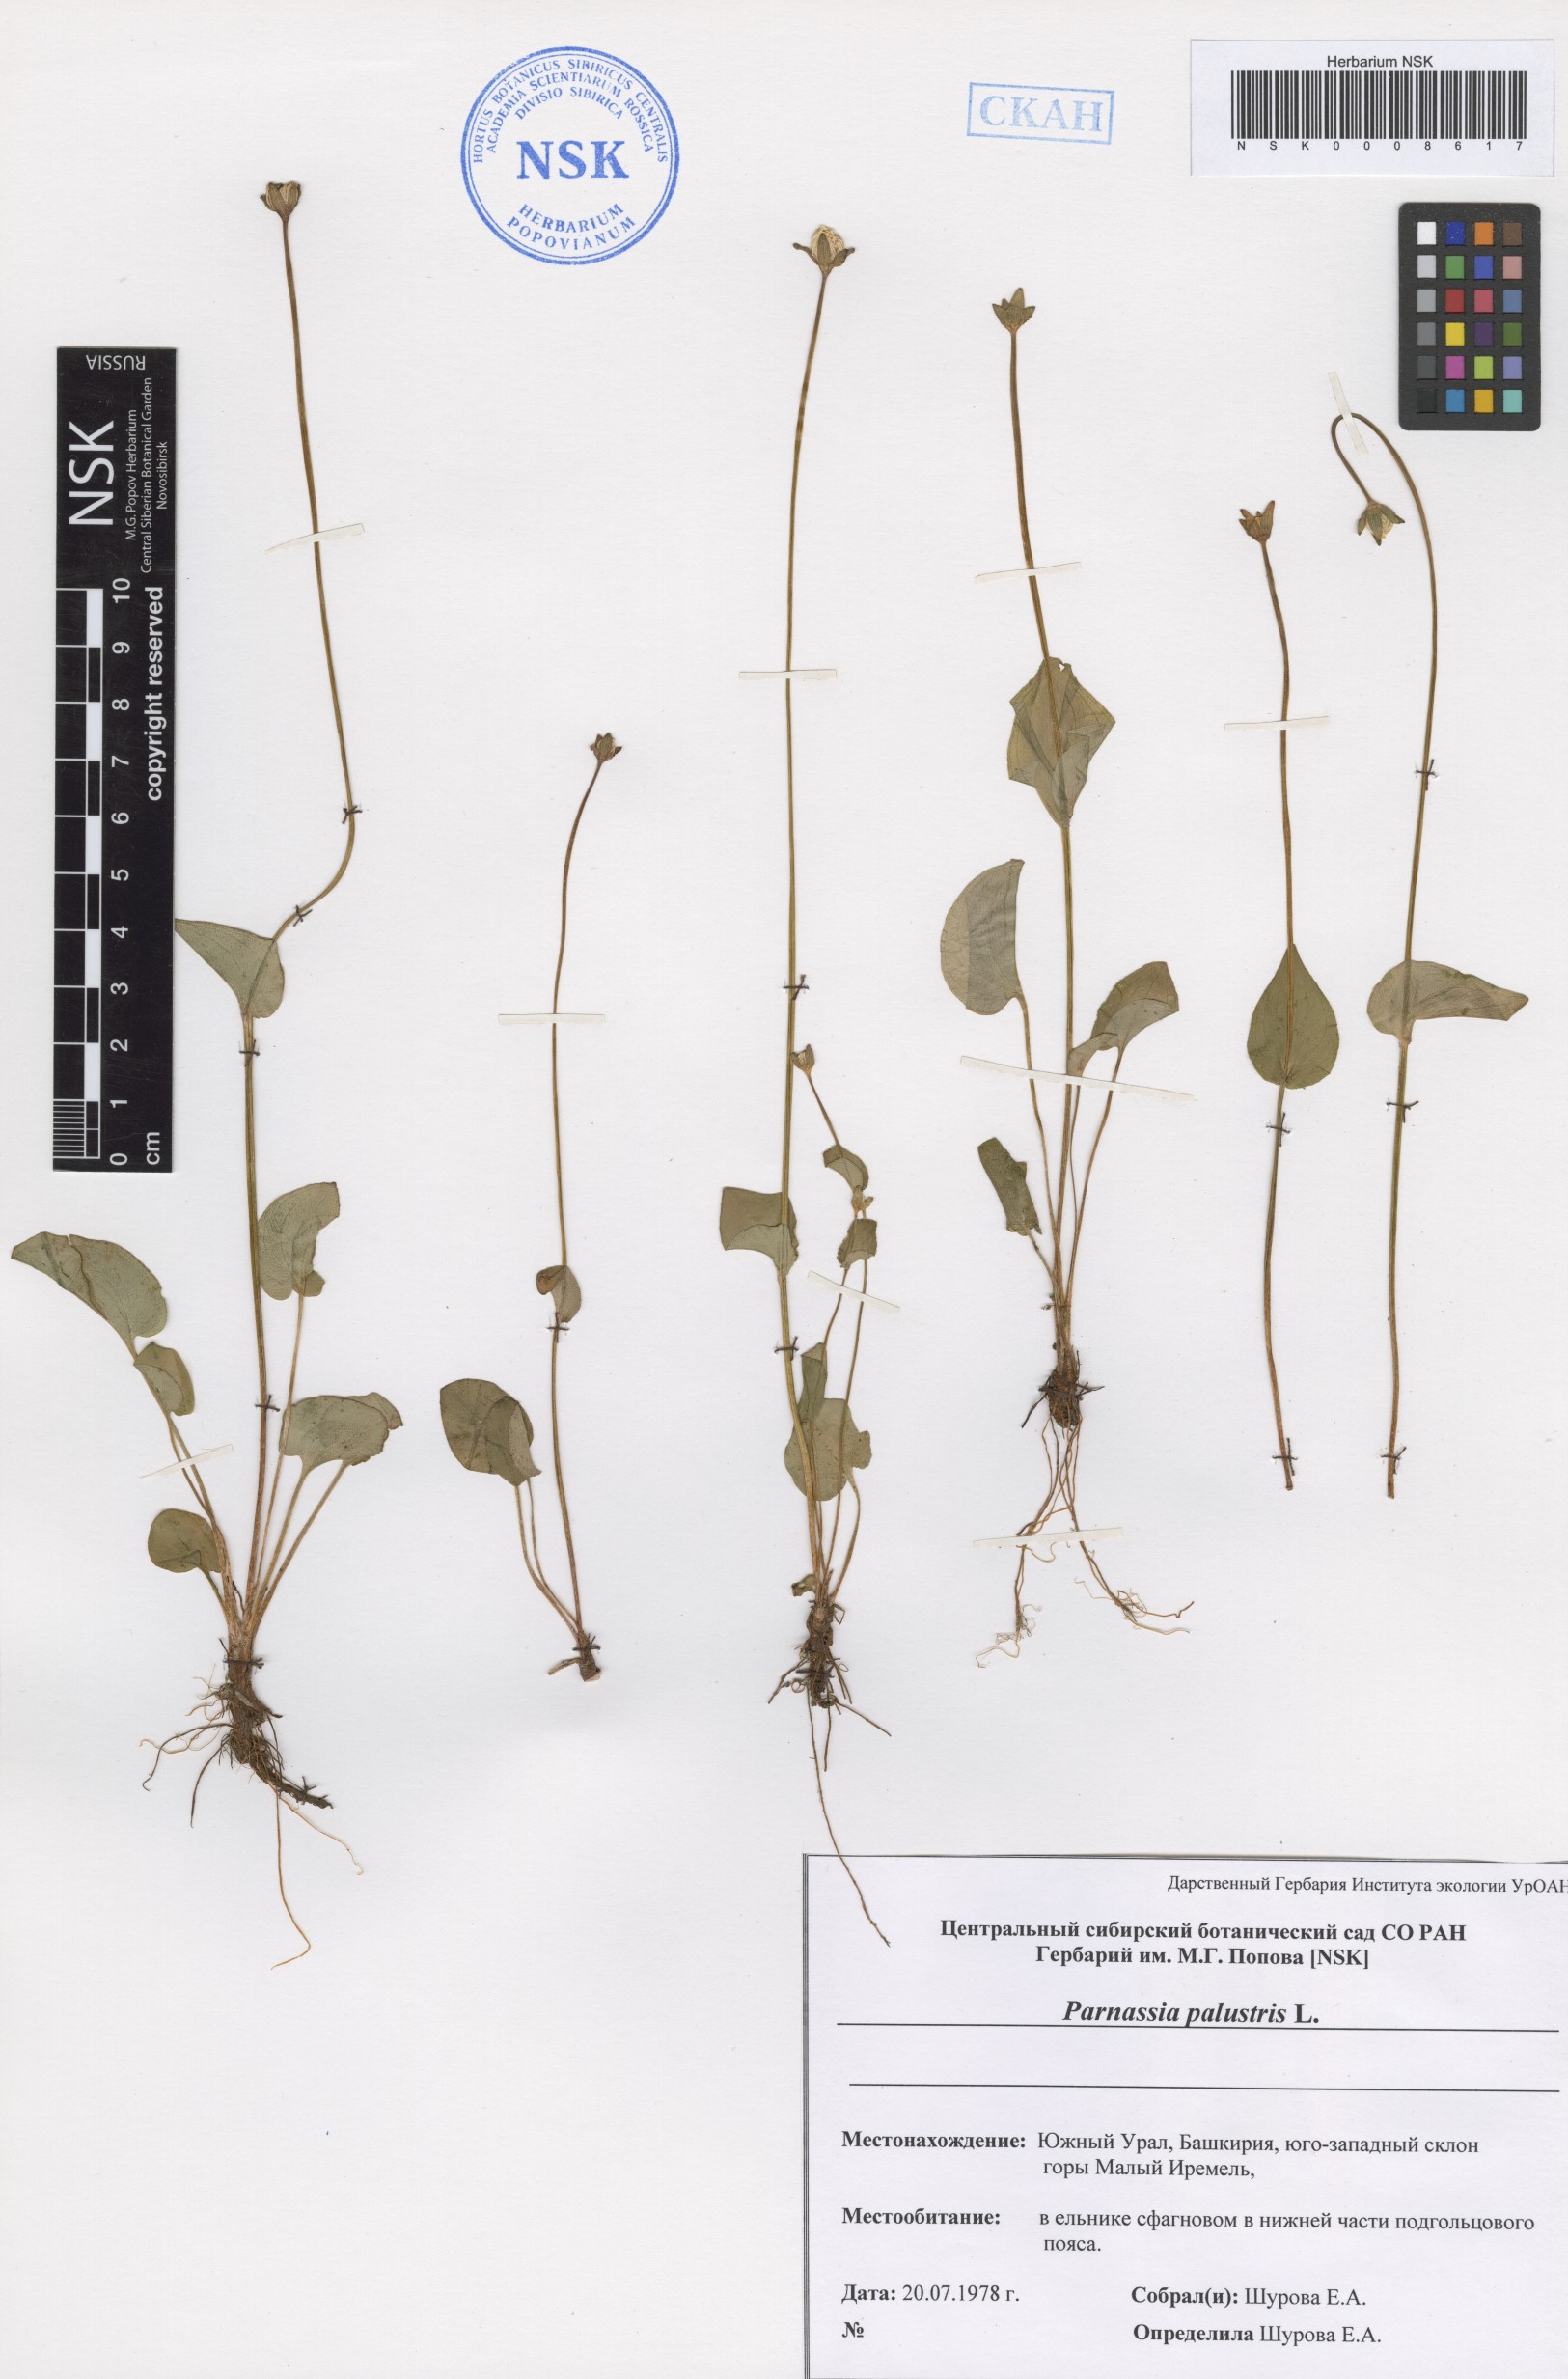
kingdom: Plantae
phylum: Tracheophyta
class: Magnoliopsida
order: Celastrales
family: Parnassiaceae
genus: Parnassia
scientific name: Parnassia palustris
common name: Grass-of-parnassus
